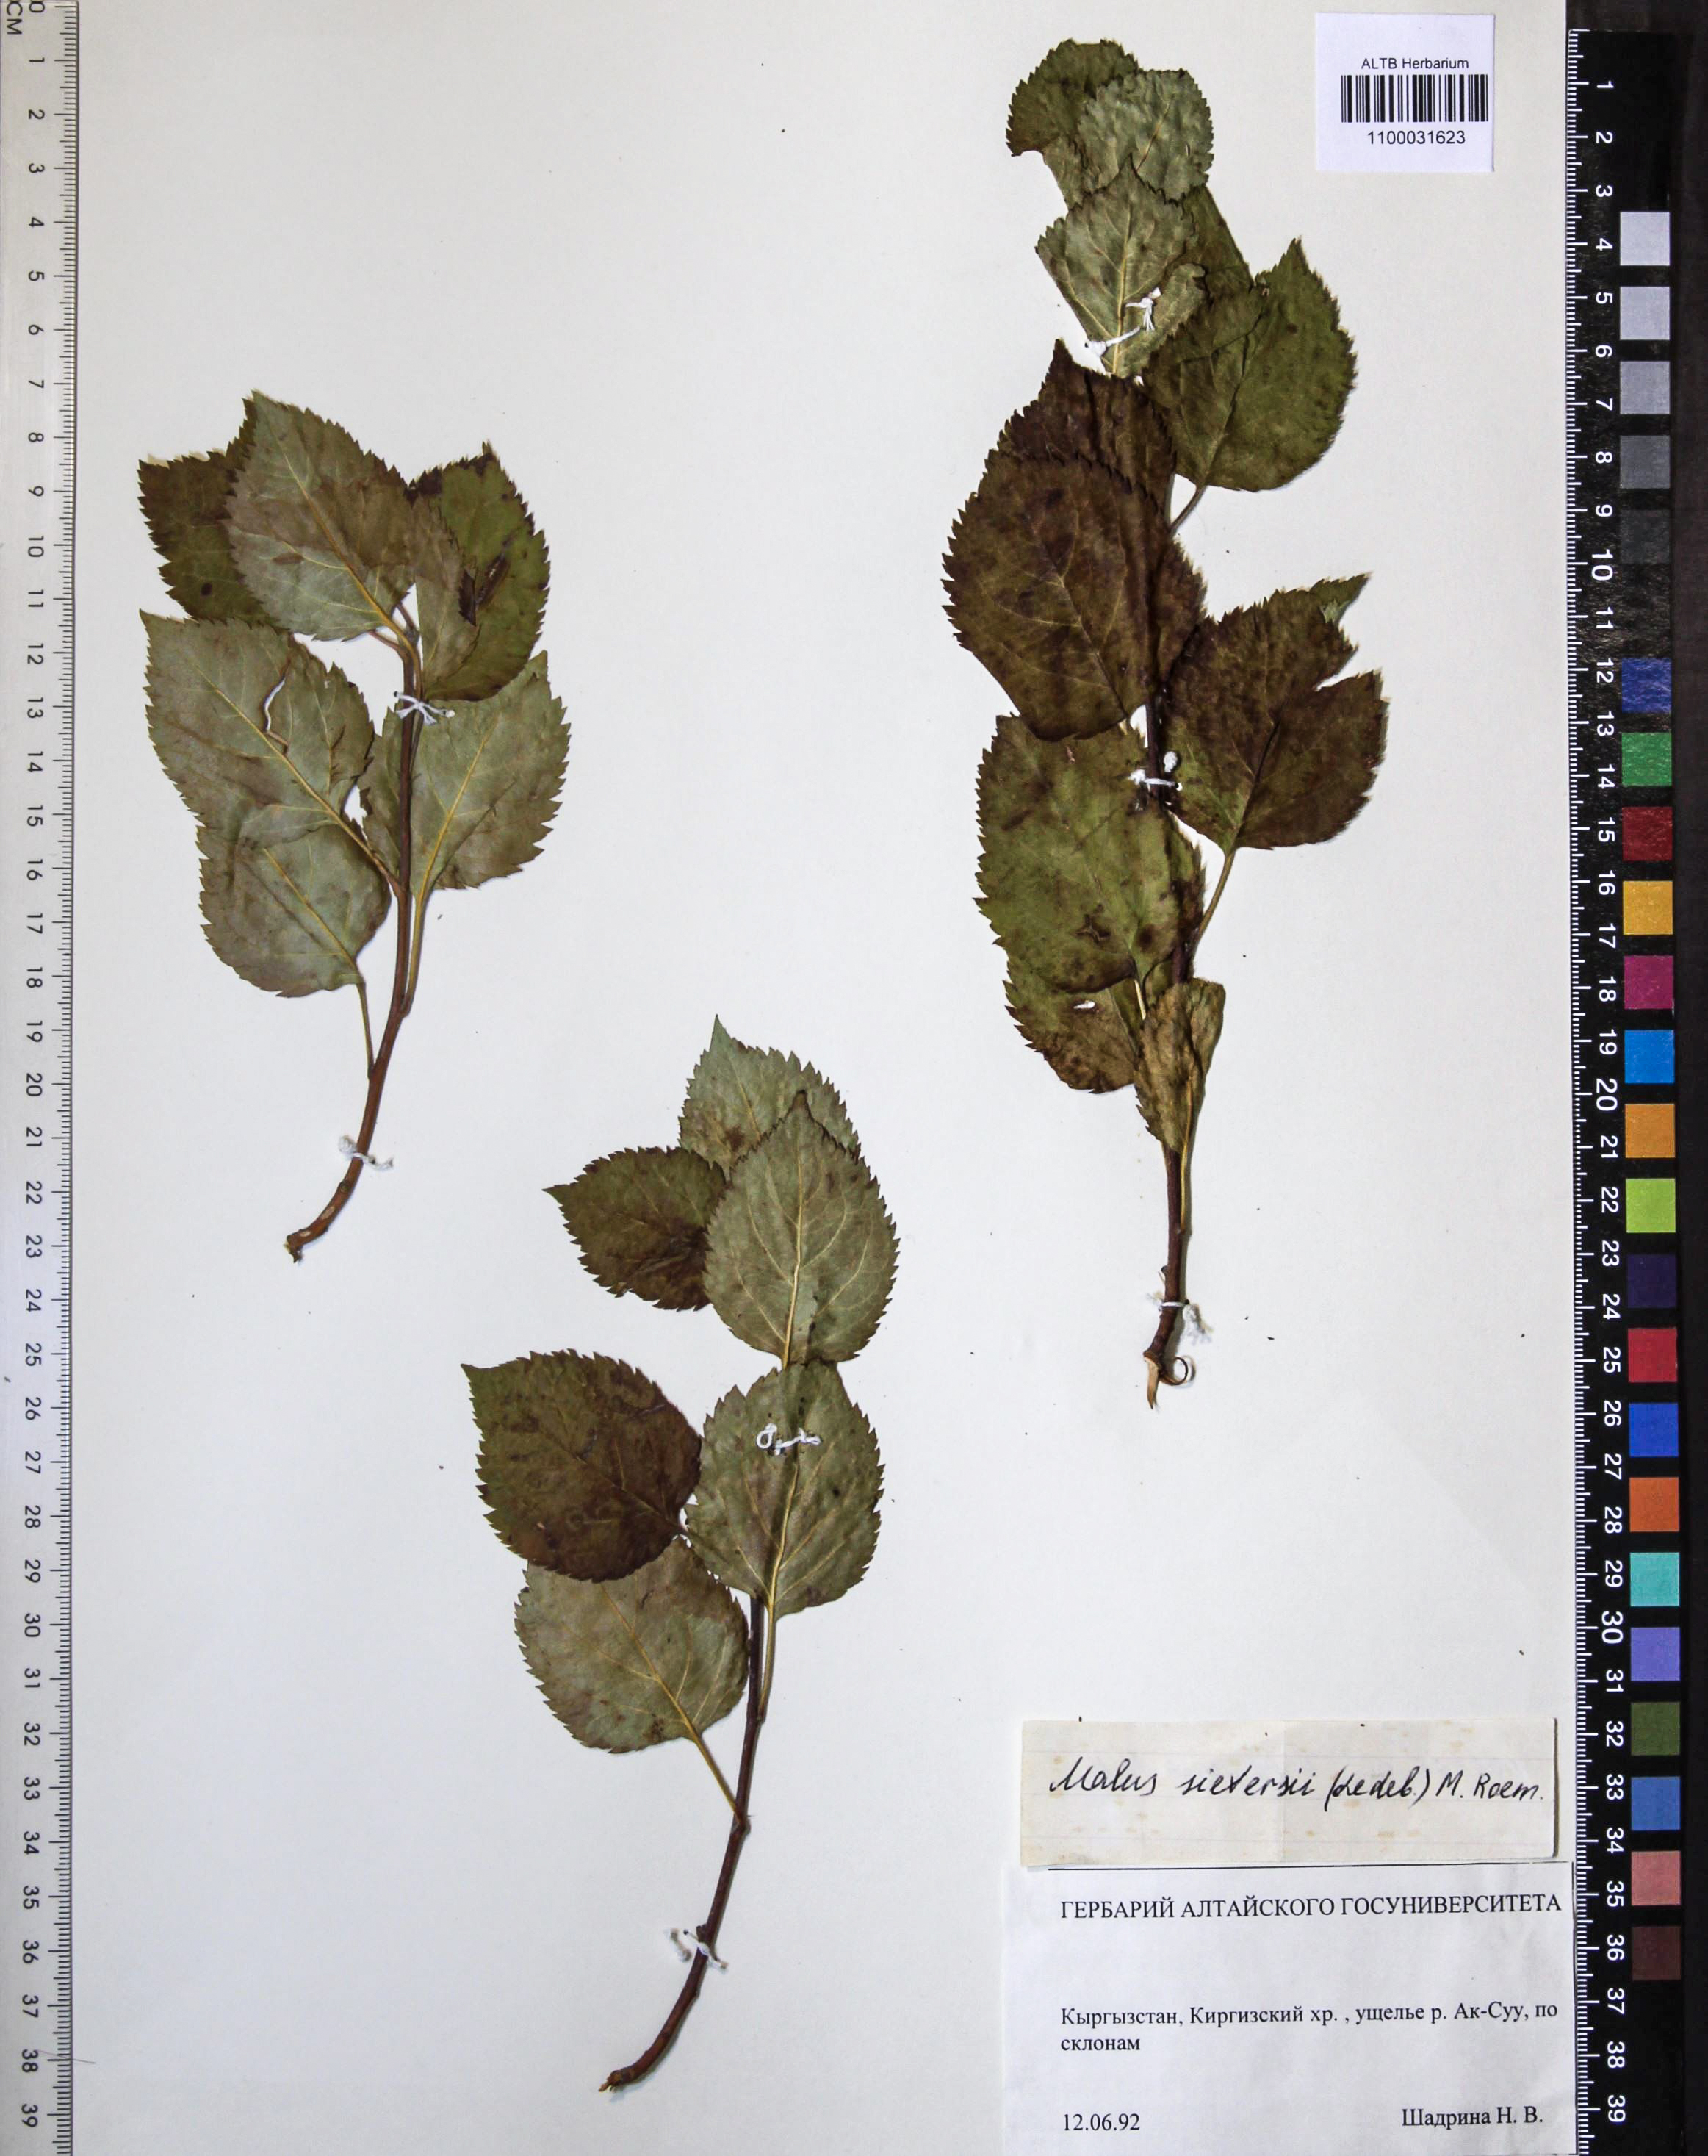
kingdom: Plantae
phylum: Tracheophyta
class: Magnoliopsida
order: Rosales
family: Rosaceae
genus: Malus
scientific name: Malus domestica
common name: Apple
